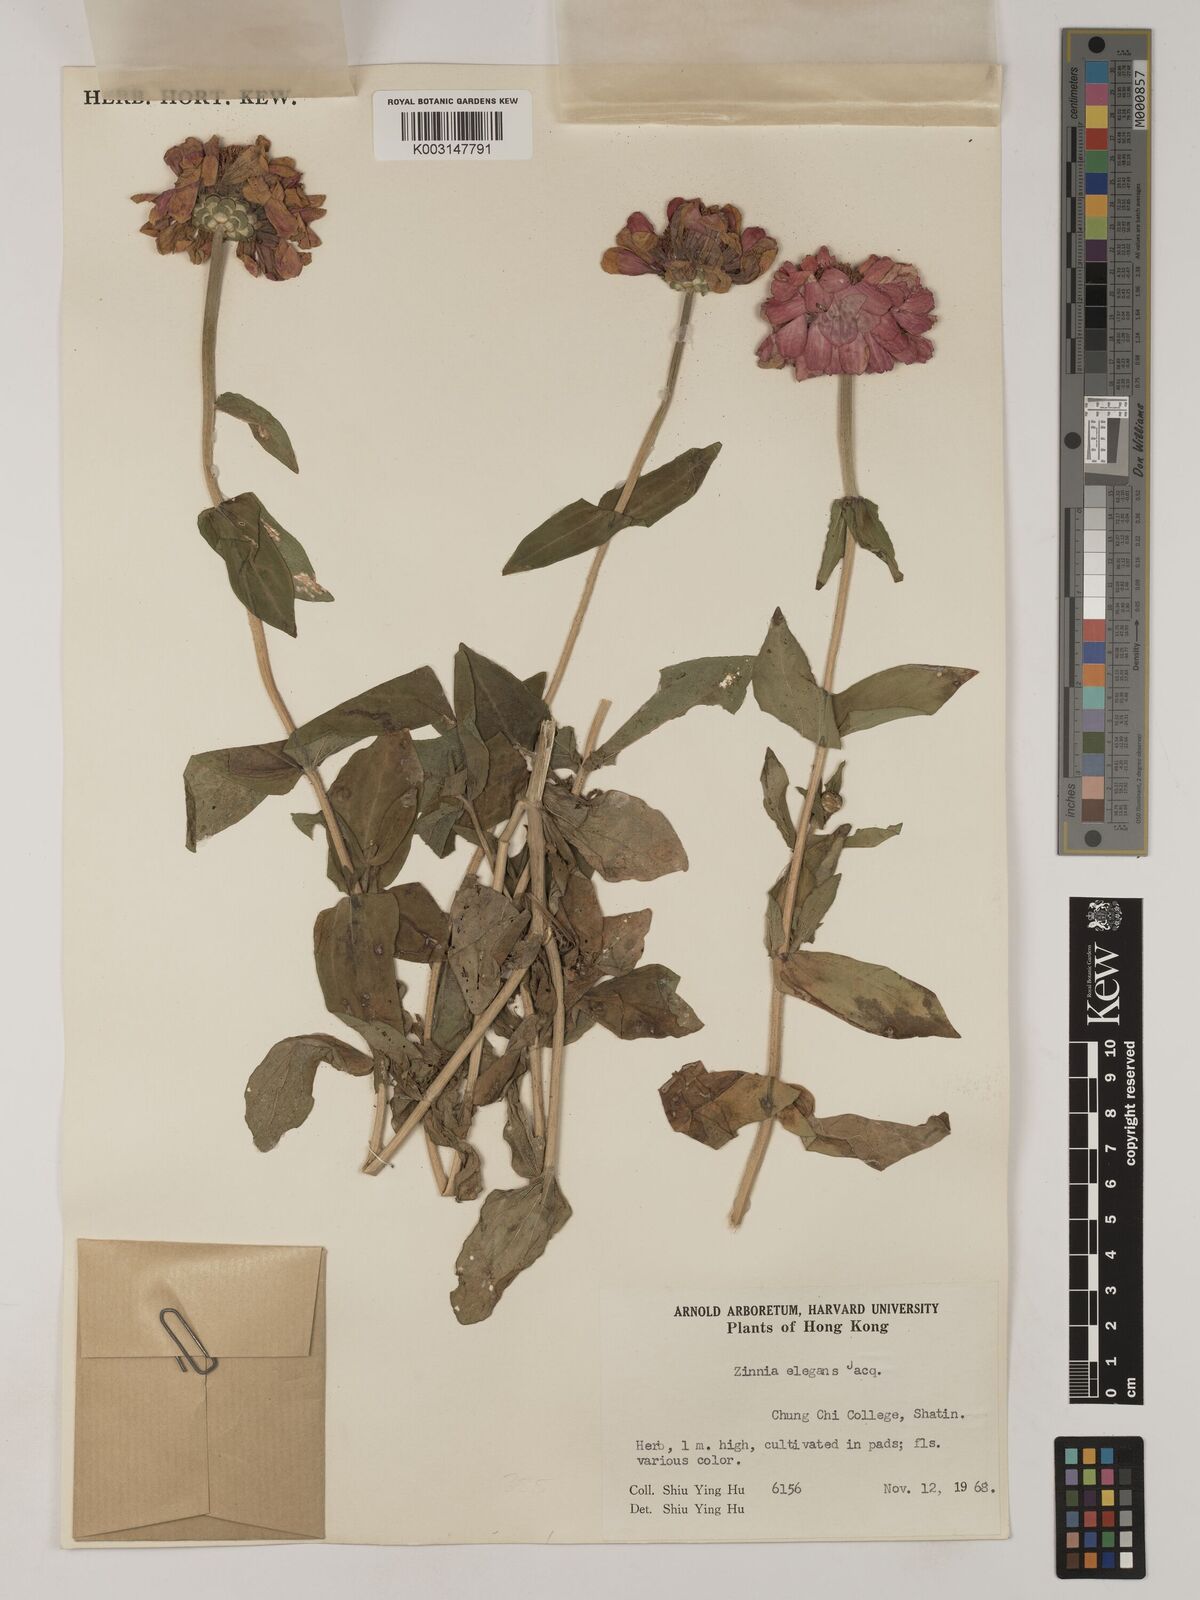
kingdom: Plantae
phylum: Tracheophyta
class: Magnoliopsida
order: Asterales
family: Asteraceae
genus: Zinnia
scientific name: Zinnia elegans
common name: Youth-and-age
